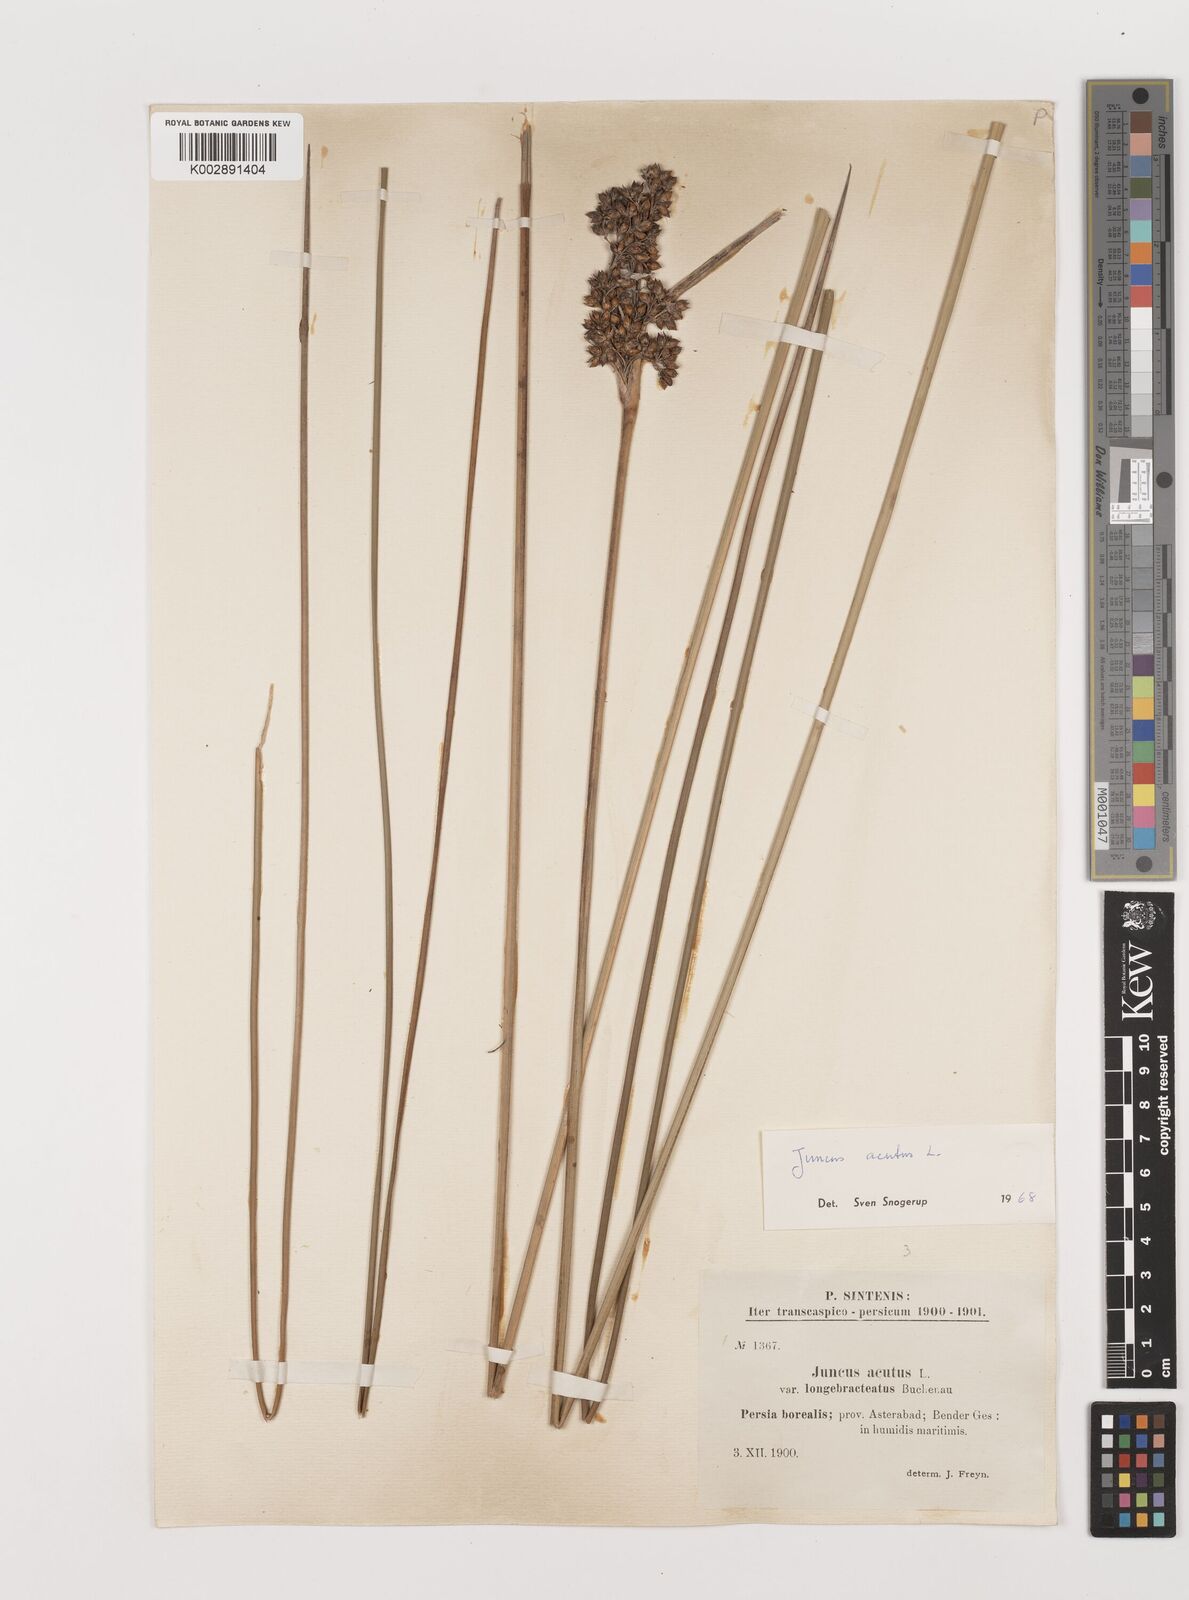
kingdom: Plantae
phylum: Tracheophyta
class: Liliopsida
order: Poales
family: Juncaceae
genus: Juncus
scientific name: Juncus acutus
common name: Sharp rush
